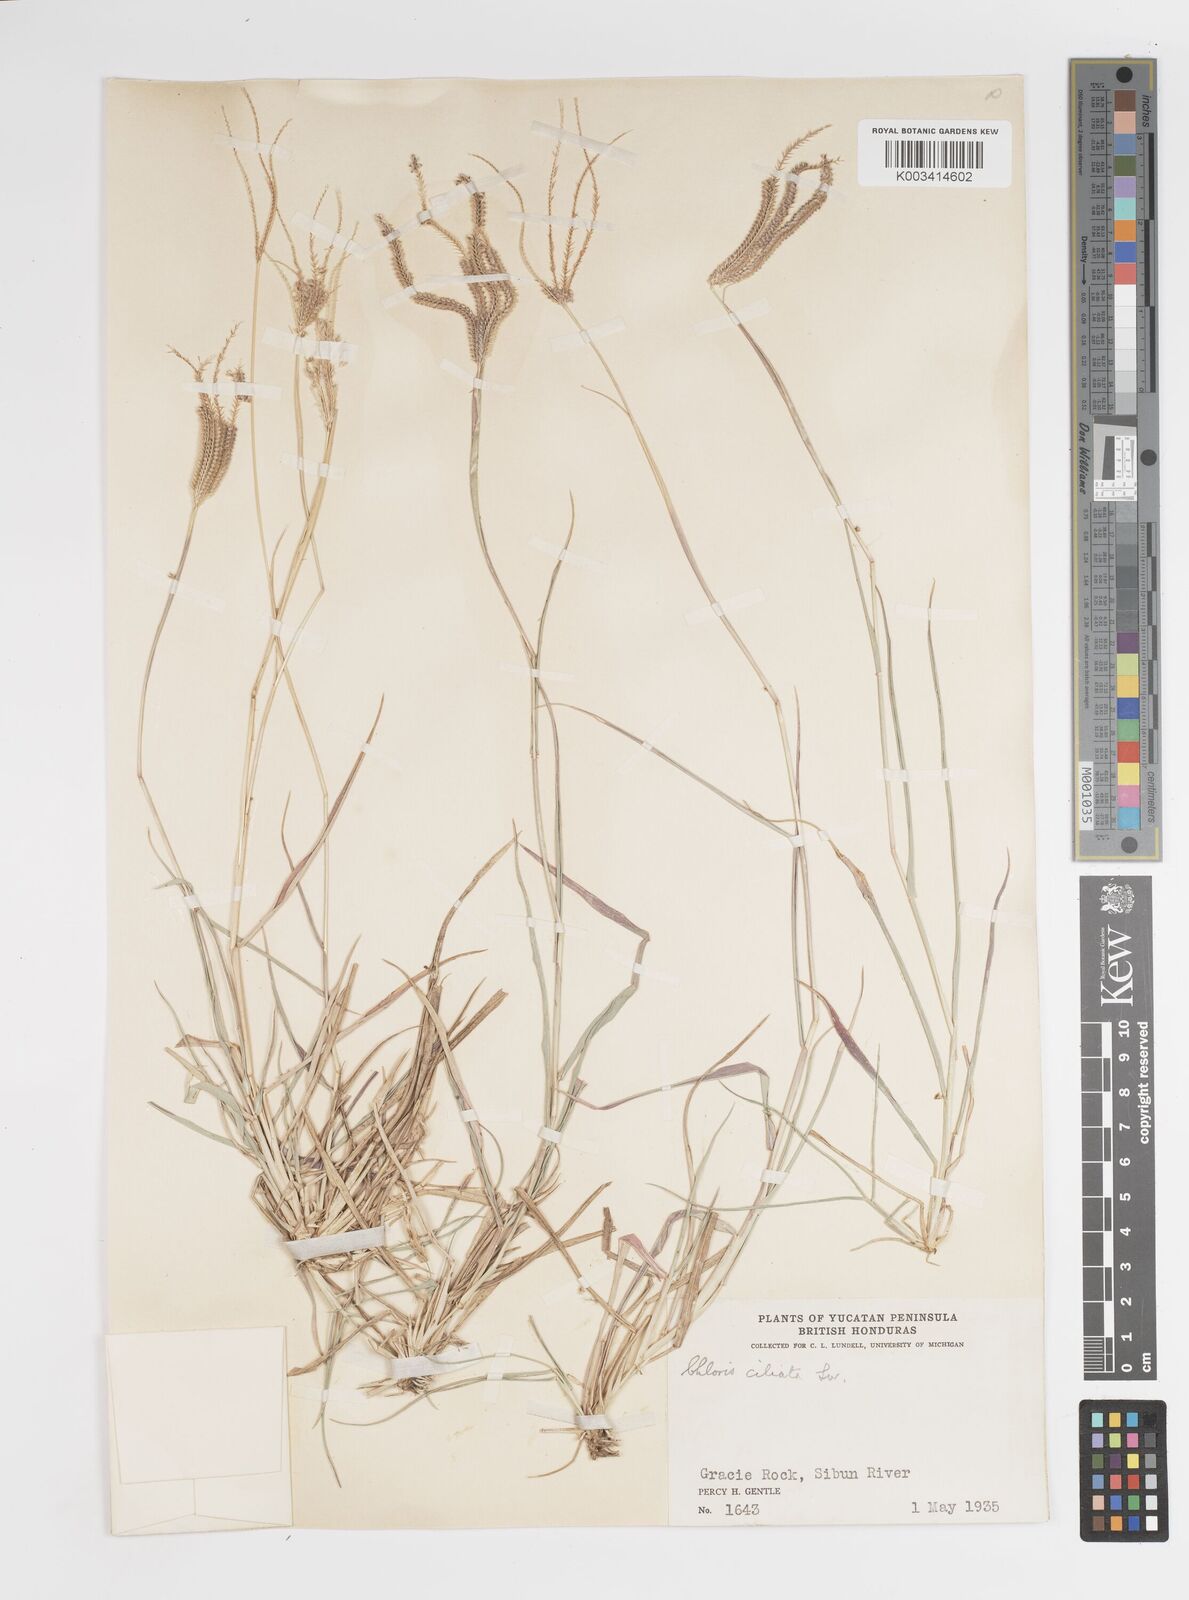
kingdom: Plantae
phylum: Tracheophyta
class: Liliopsida
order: Poales
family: Poaceae
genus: Stapfochloa
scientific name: Stapfochloa ciliata
